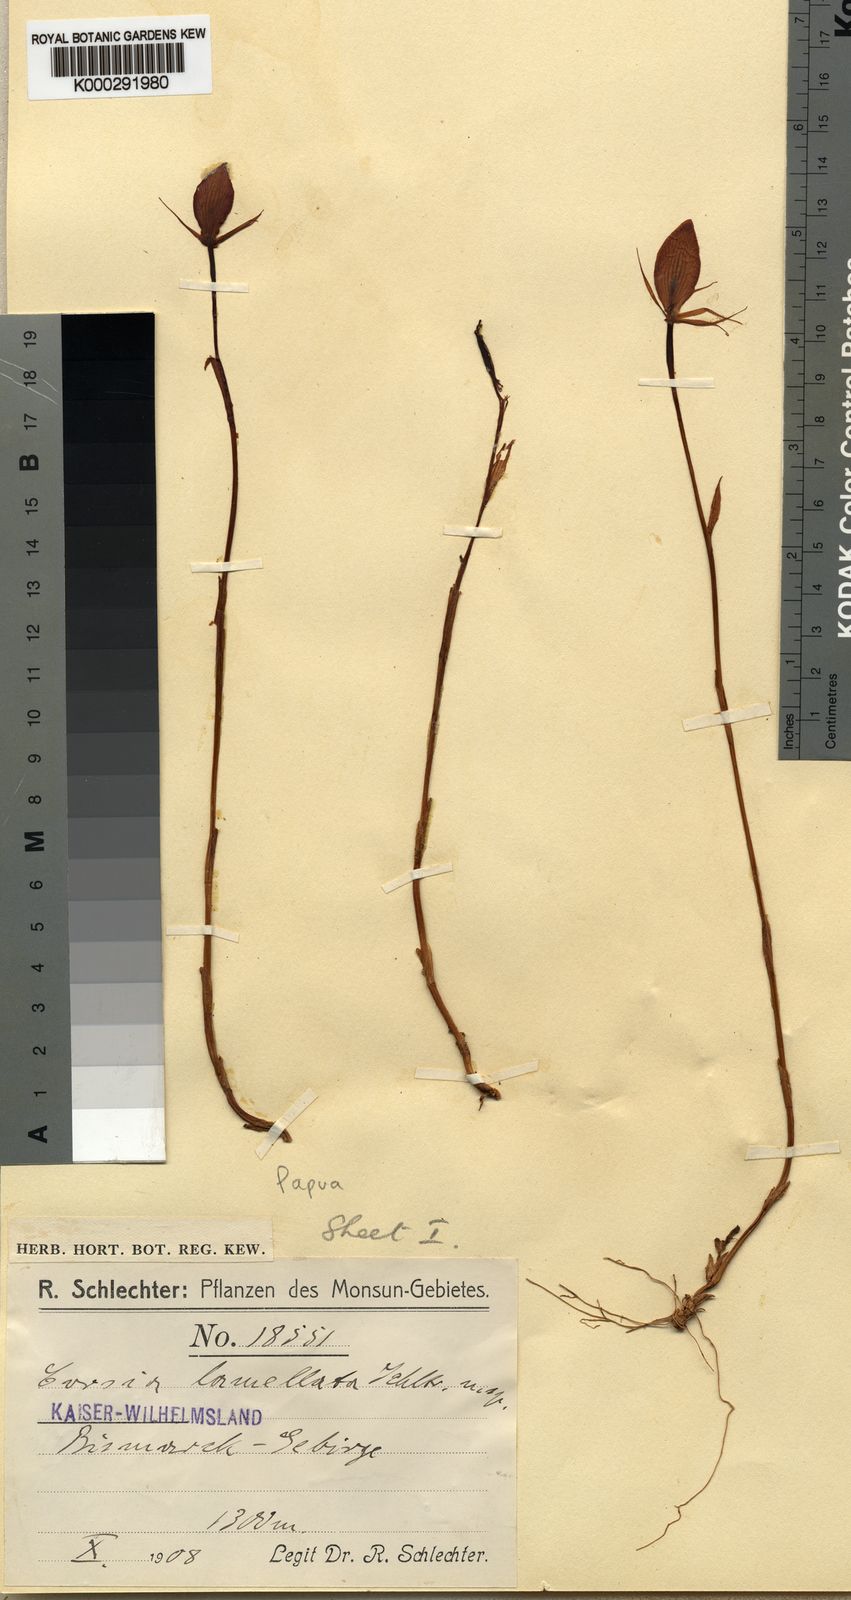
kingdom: Plantae
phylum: Tracheophyta
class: Liliopsida
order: Liliales
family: Corsiaceae
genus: Corsia
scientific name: Corsia lamellata
